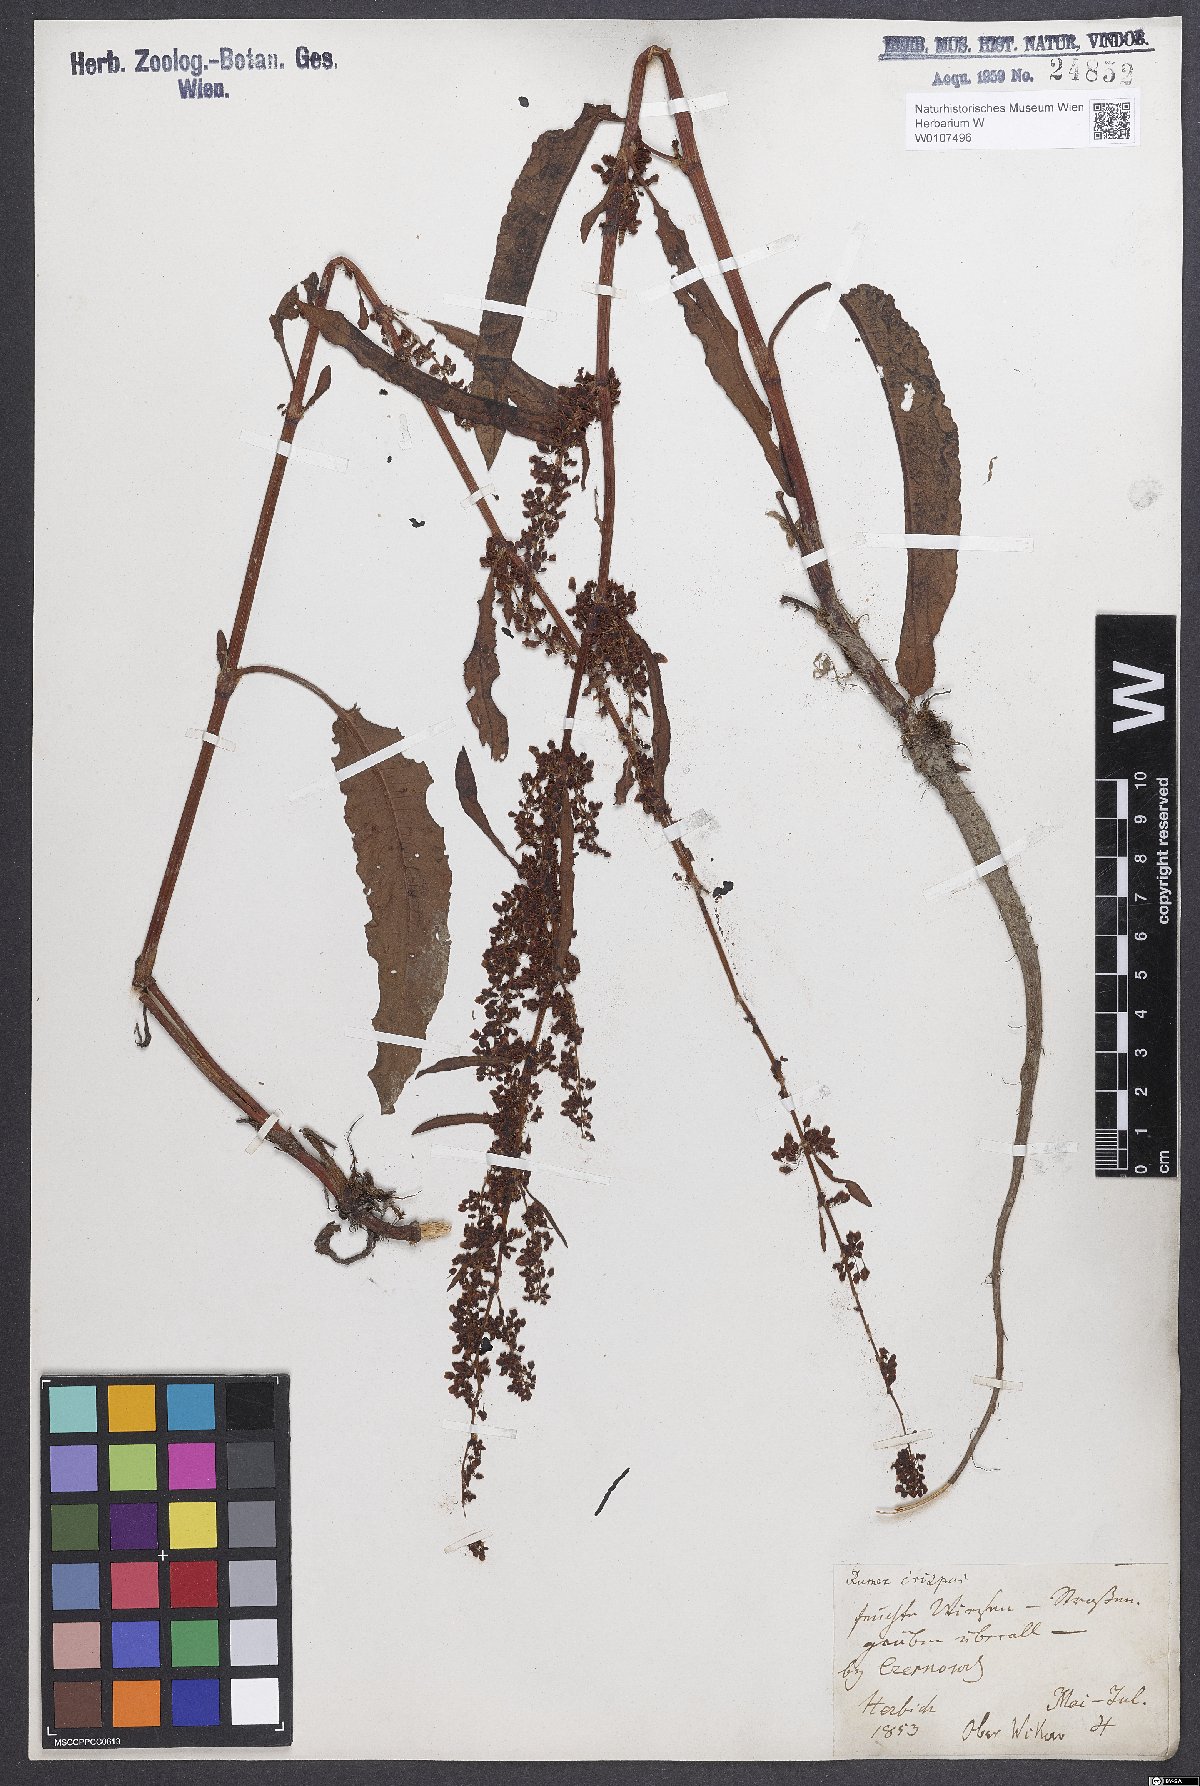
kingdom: Plantae
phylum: Tracheophyta
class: Magnoliopsida
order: Caryophyllales
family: Polygonaceae
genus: Rumex
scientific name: Rumex crispus
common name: Curled dock
